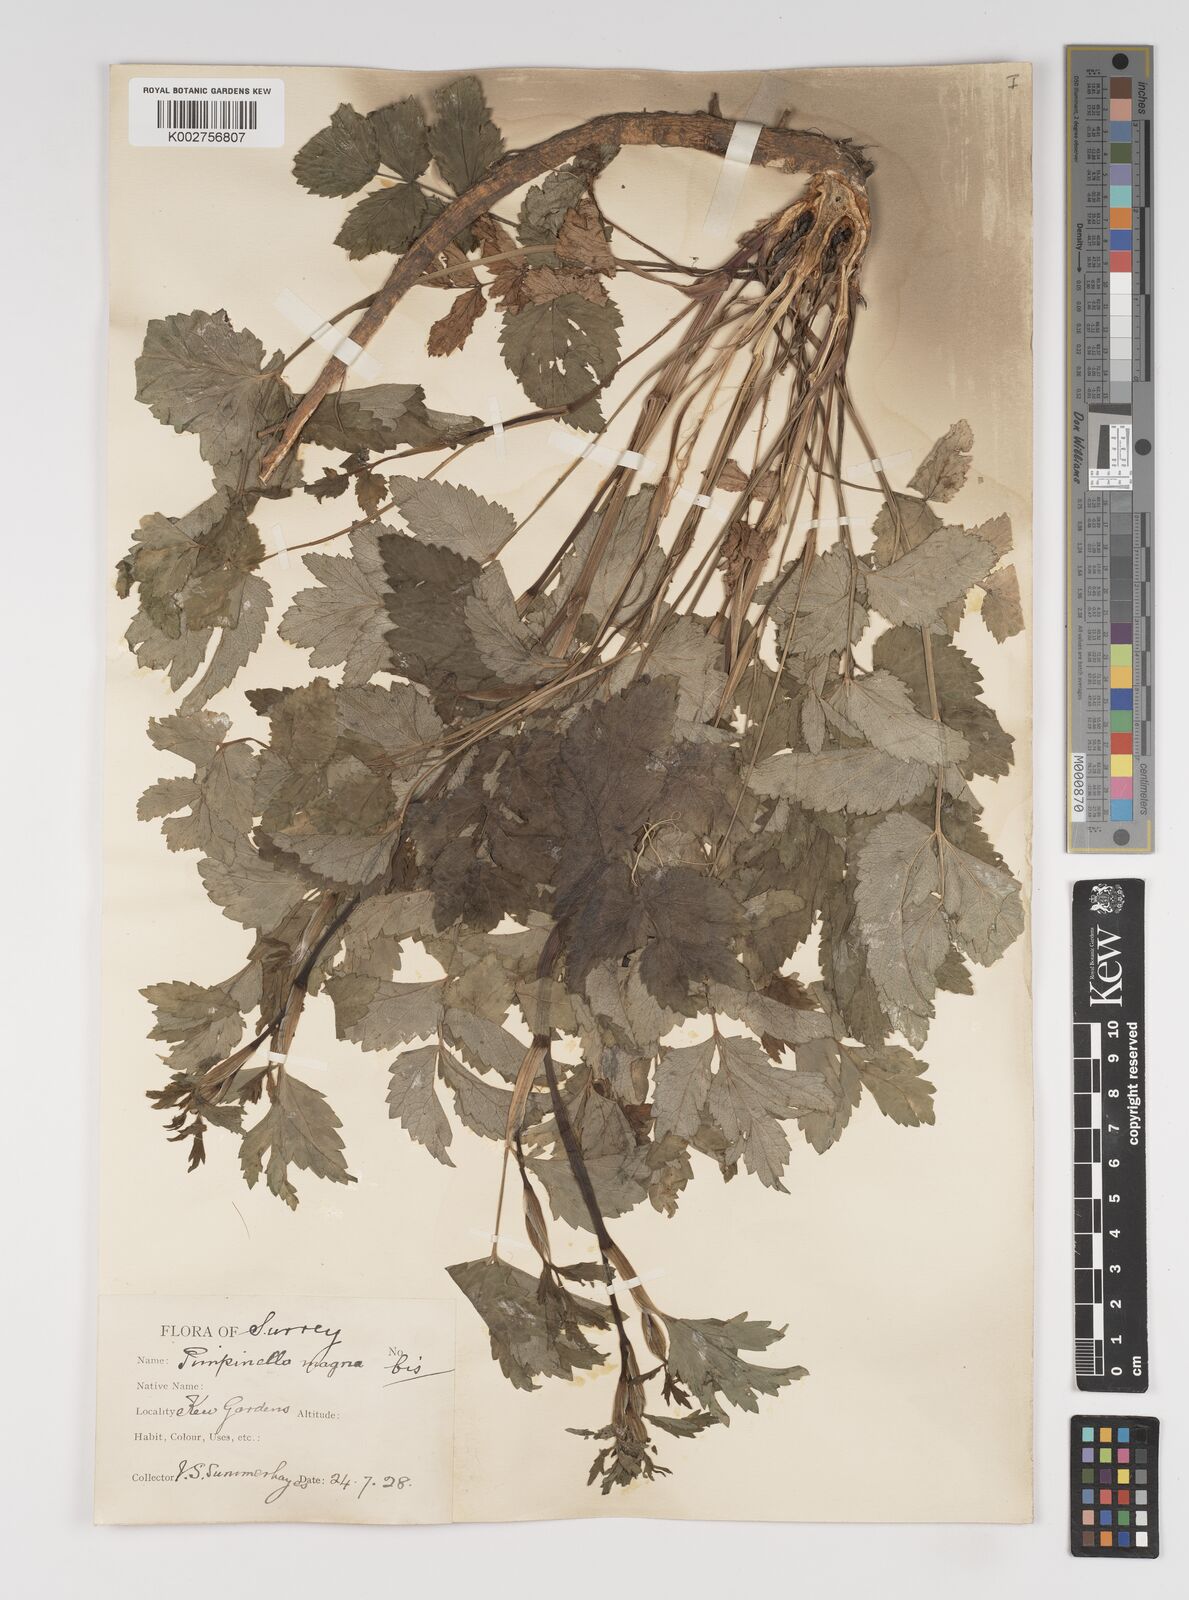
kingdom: Plantae
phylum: Tracheophyta
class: Magnoliopsida
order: Apiales
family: Apiaceae
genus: Pimpinella
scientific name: Pimpinella major
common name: Greater burnet-saxifrage
